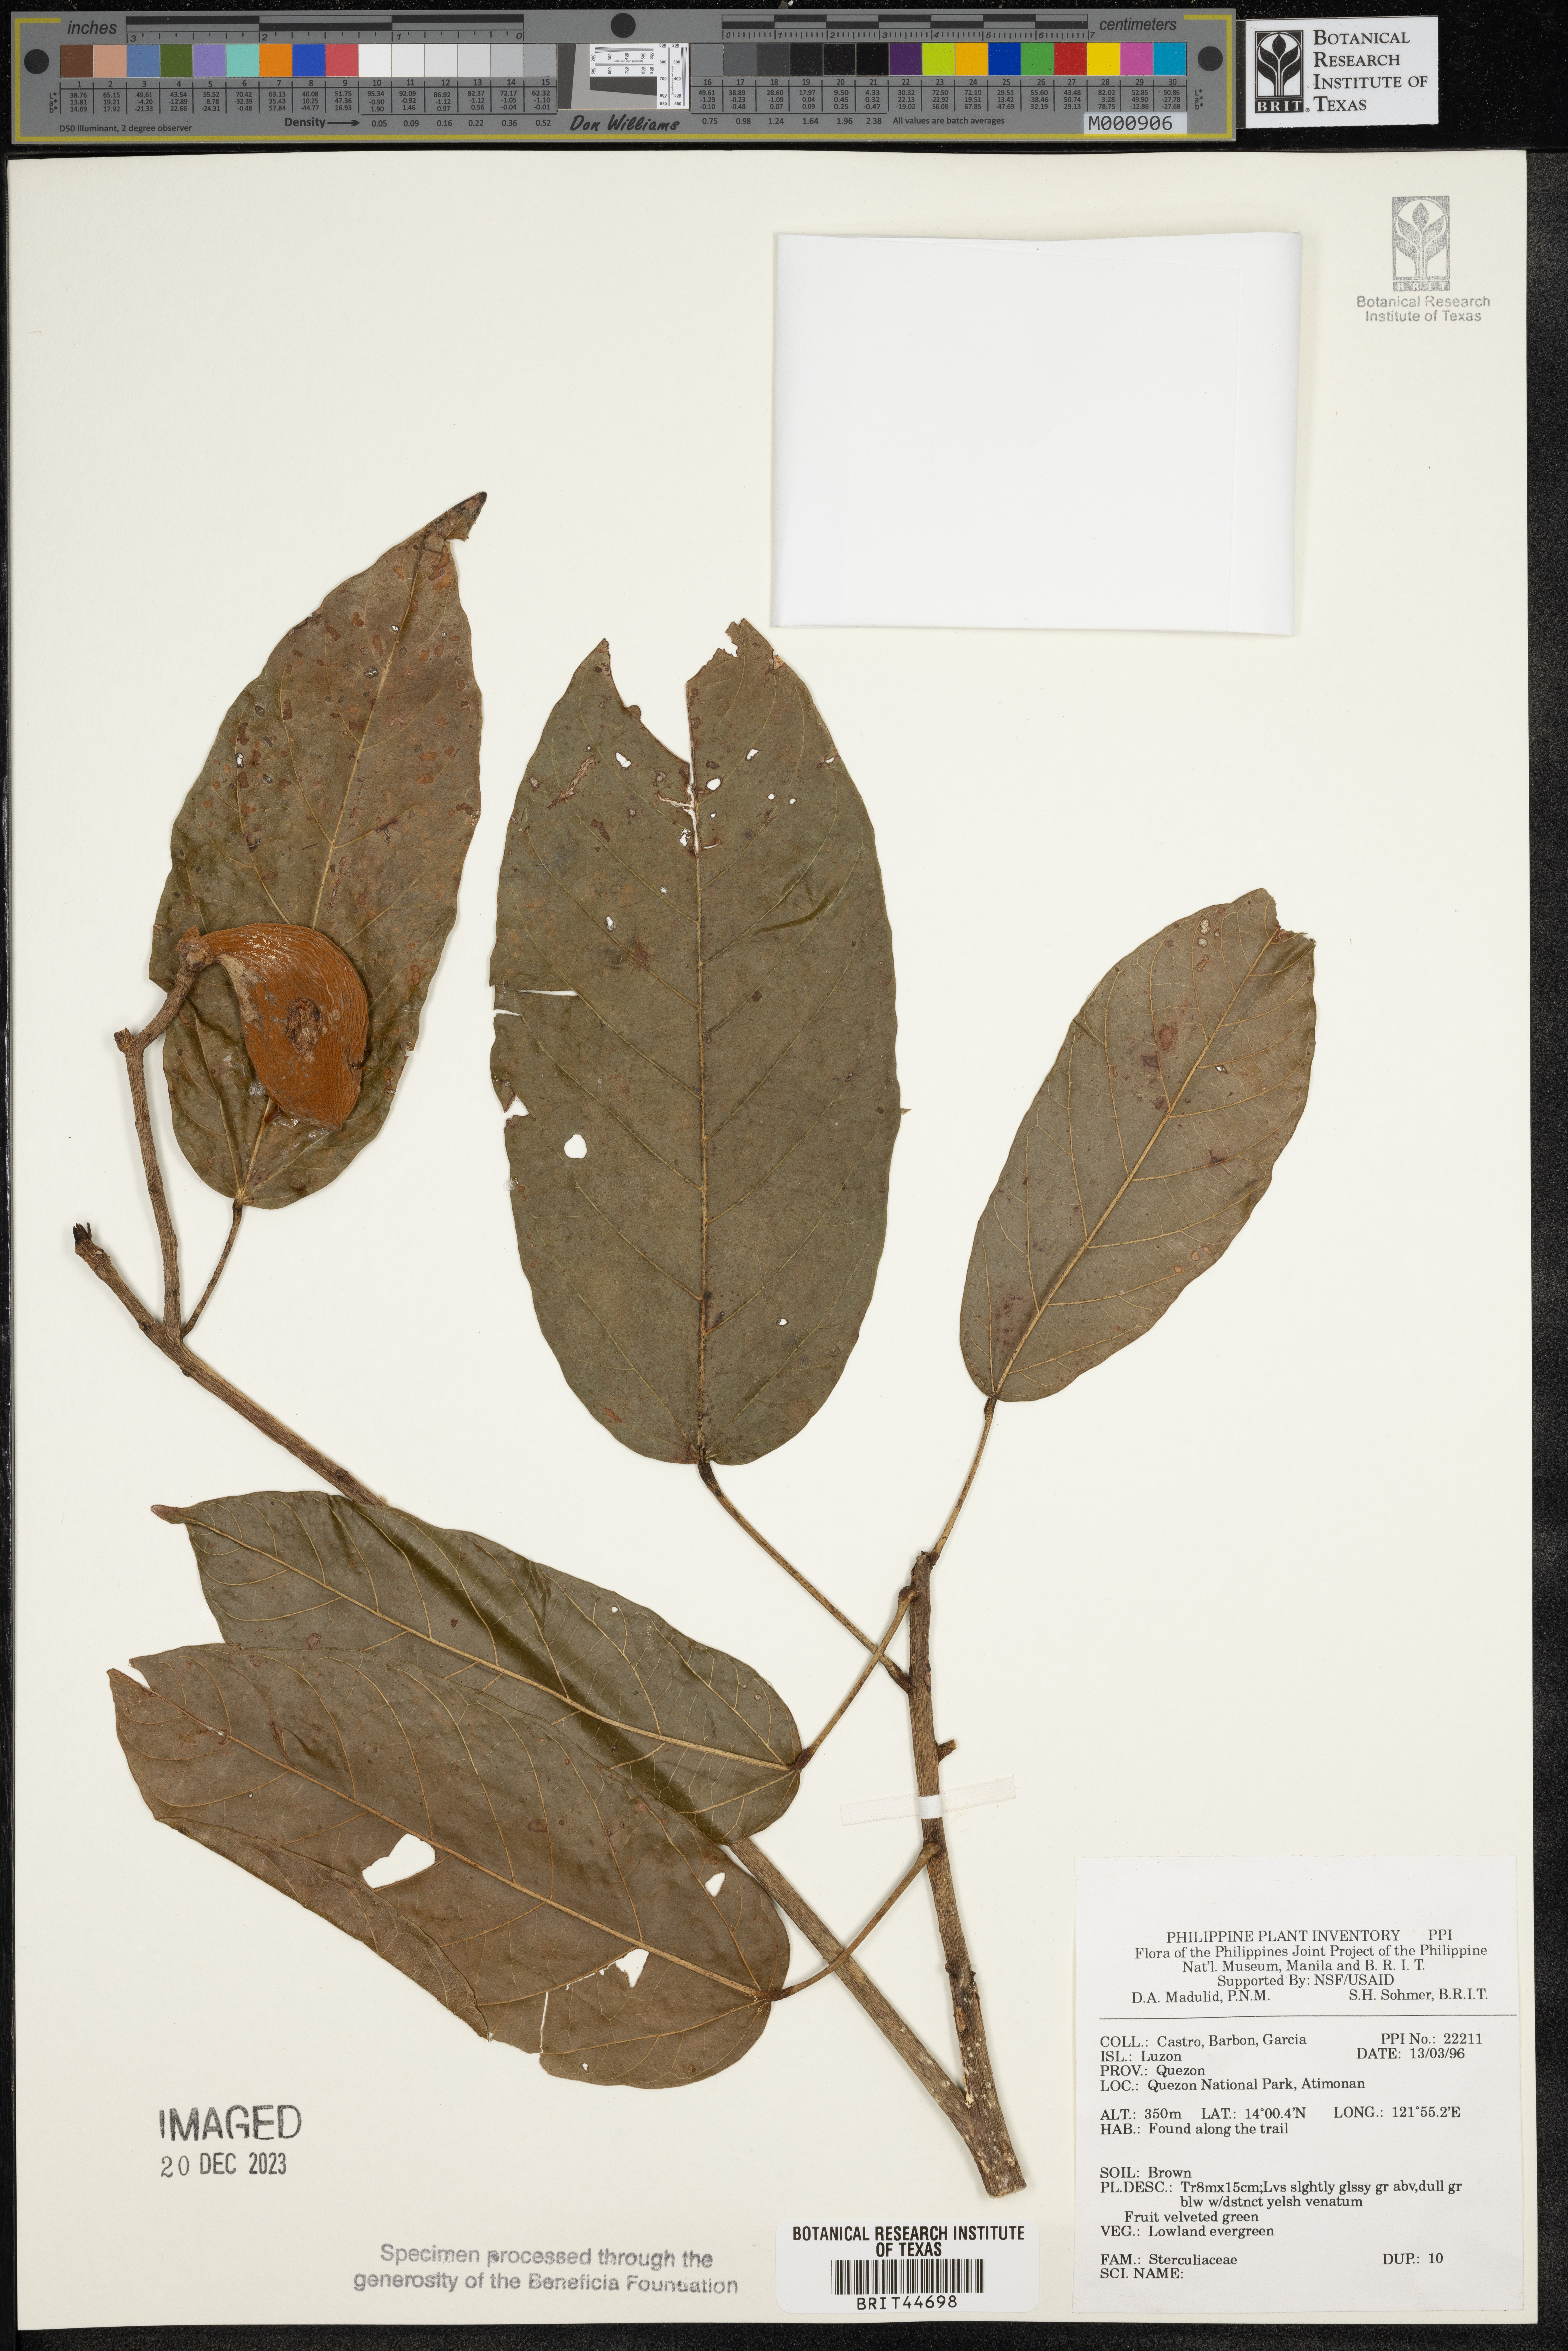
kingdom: Plantae
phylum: Tracheophyta
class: Magnoliopsida
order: Malvales
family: Sterculiaceae
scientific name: Sterculiaceae
